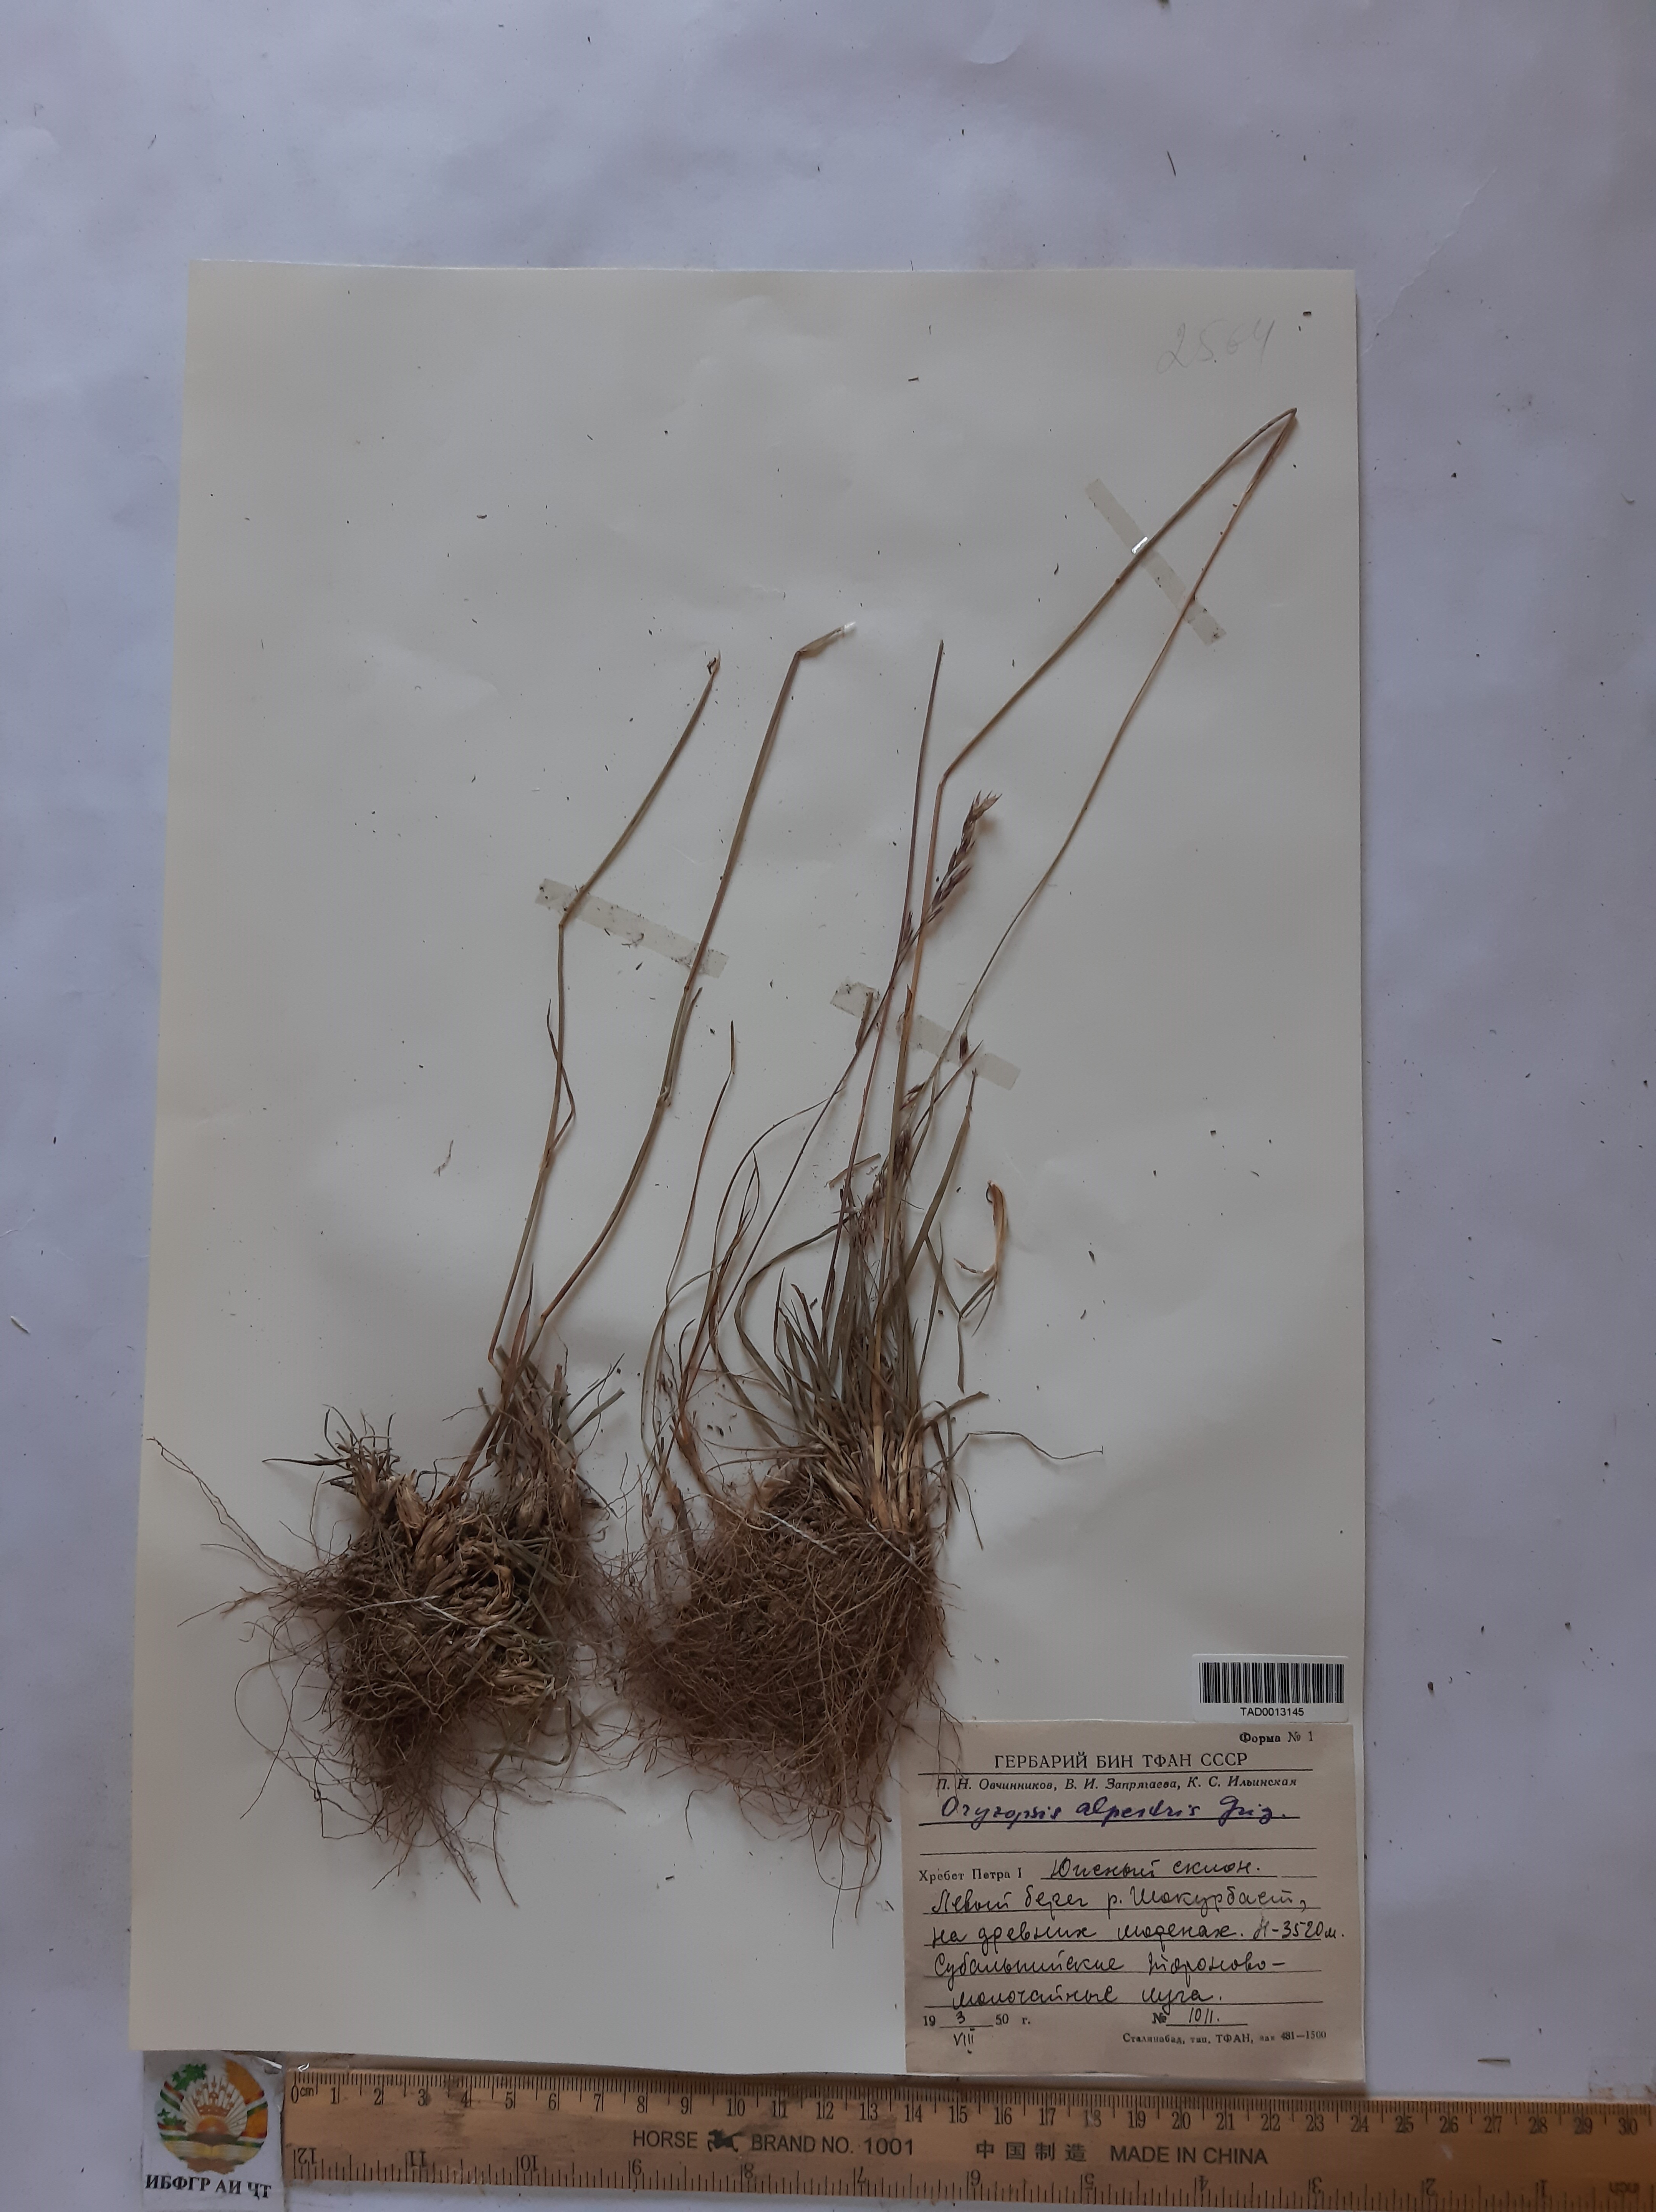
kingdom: Plantae
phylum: Tracheophyta
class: Liliopsida
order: Poales
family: Poaceae
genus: Piptatherum
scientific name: Piptatherum alpestre
